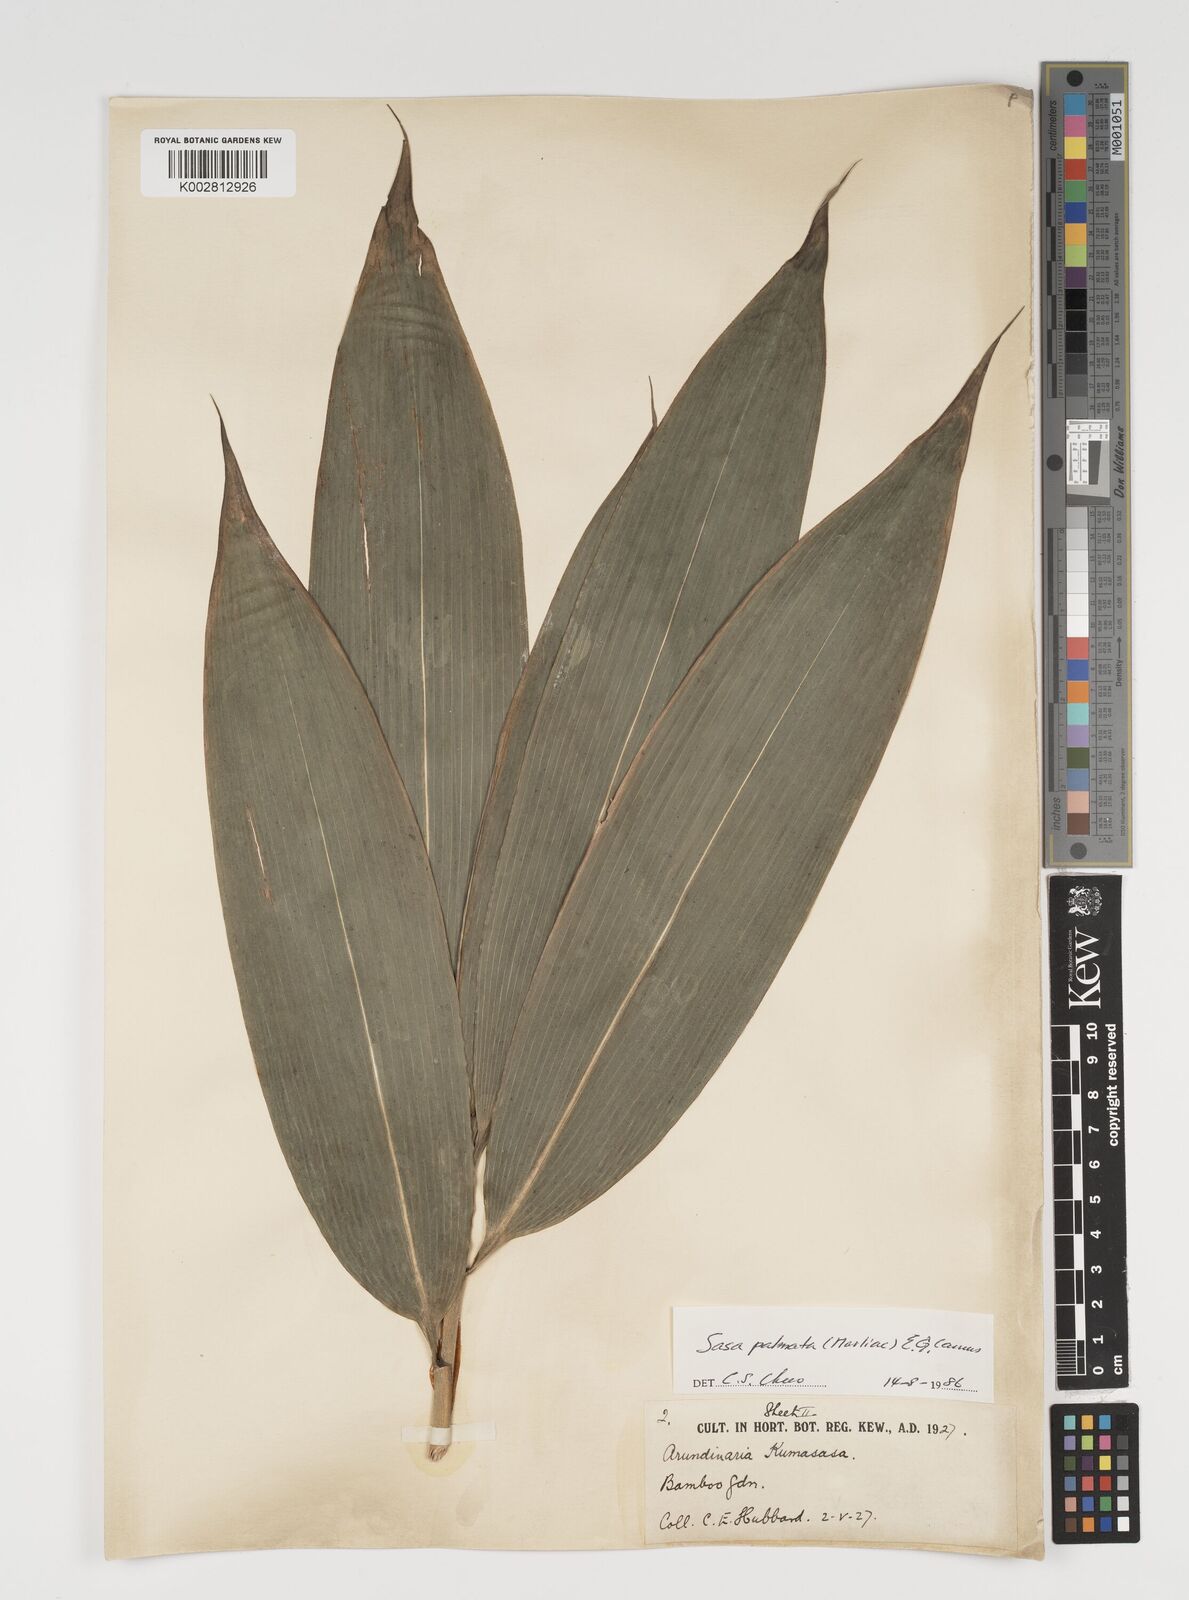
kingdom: Plantae
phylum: Tracheophyta
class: Liliopsida
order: Poales
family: Poaceae
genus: Sasa
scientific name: Sasa palmata
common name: Broad-leaved bamboo
